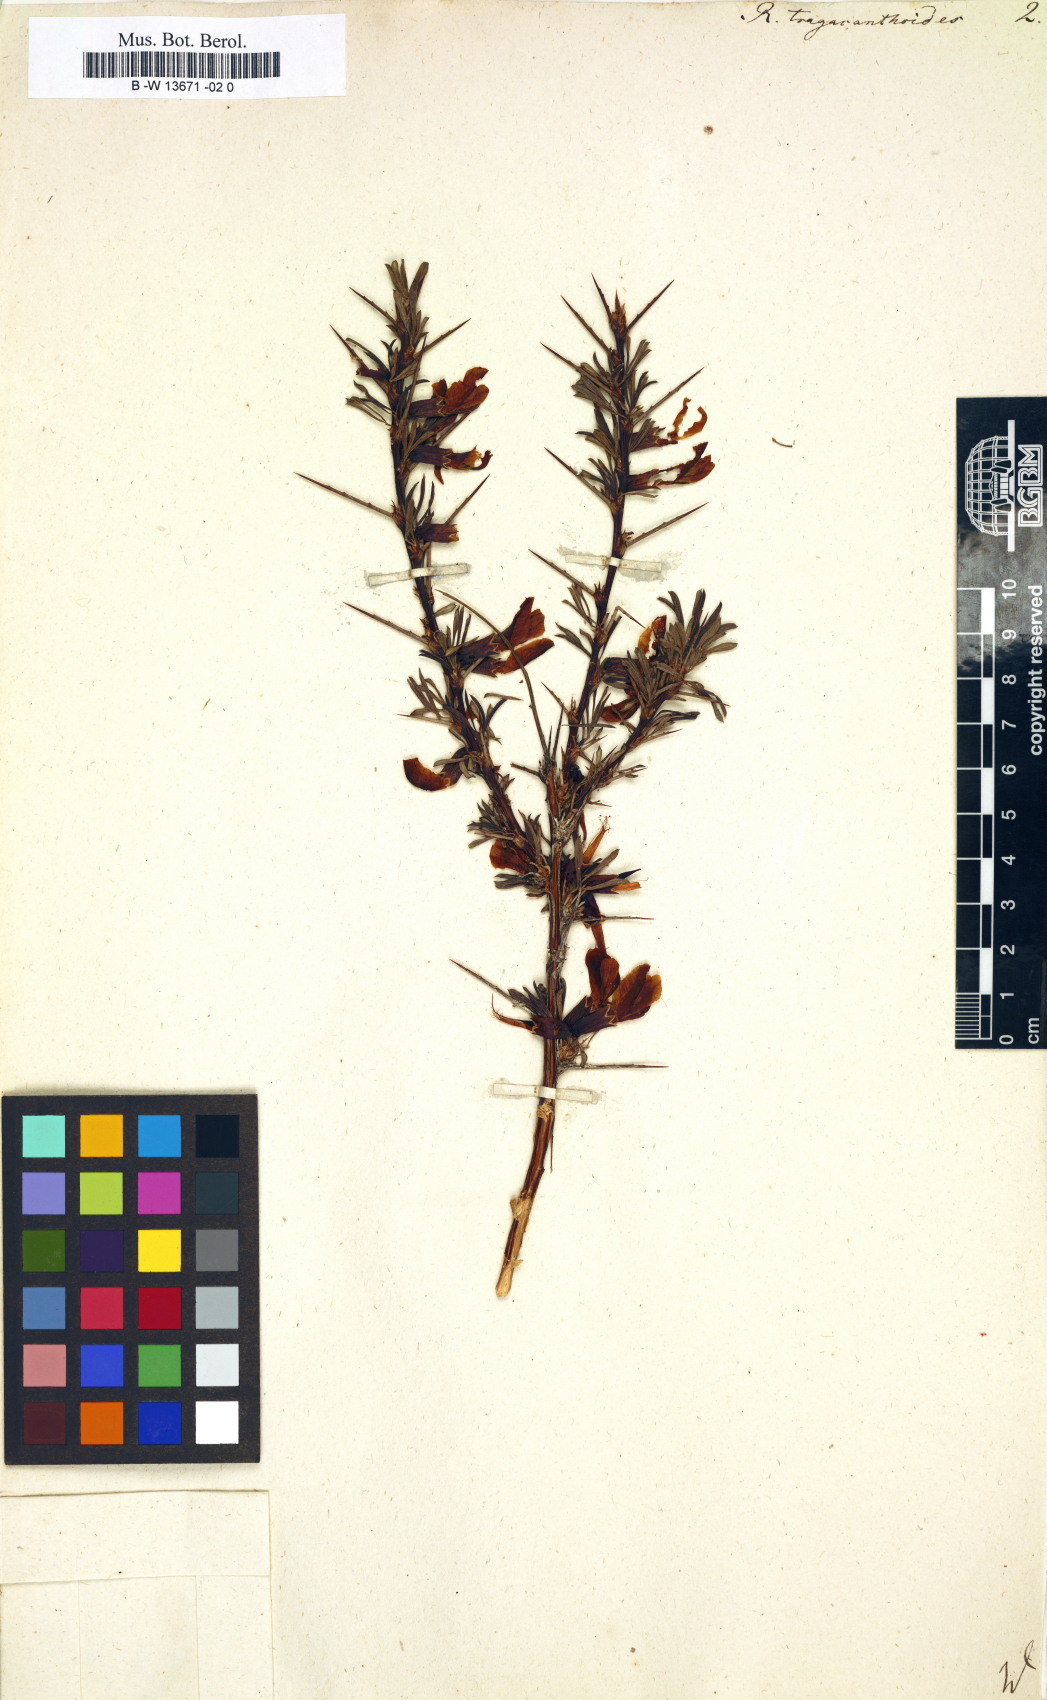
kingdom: Plantae
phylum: Tracheophyta
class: Magnoliopsida
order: Fabales
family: Fabaceae
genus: Caragana
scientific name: Caragana tragacanthoides
